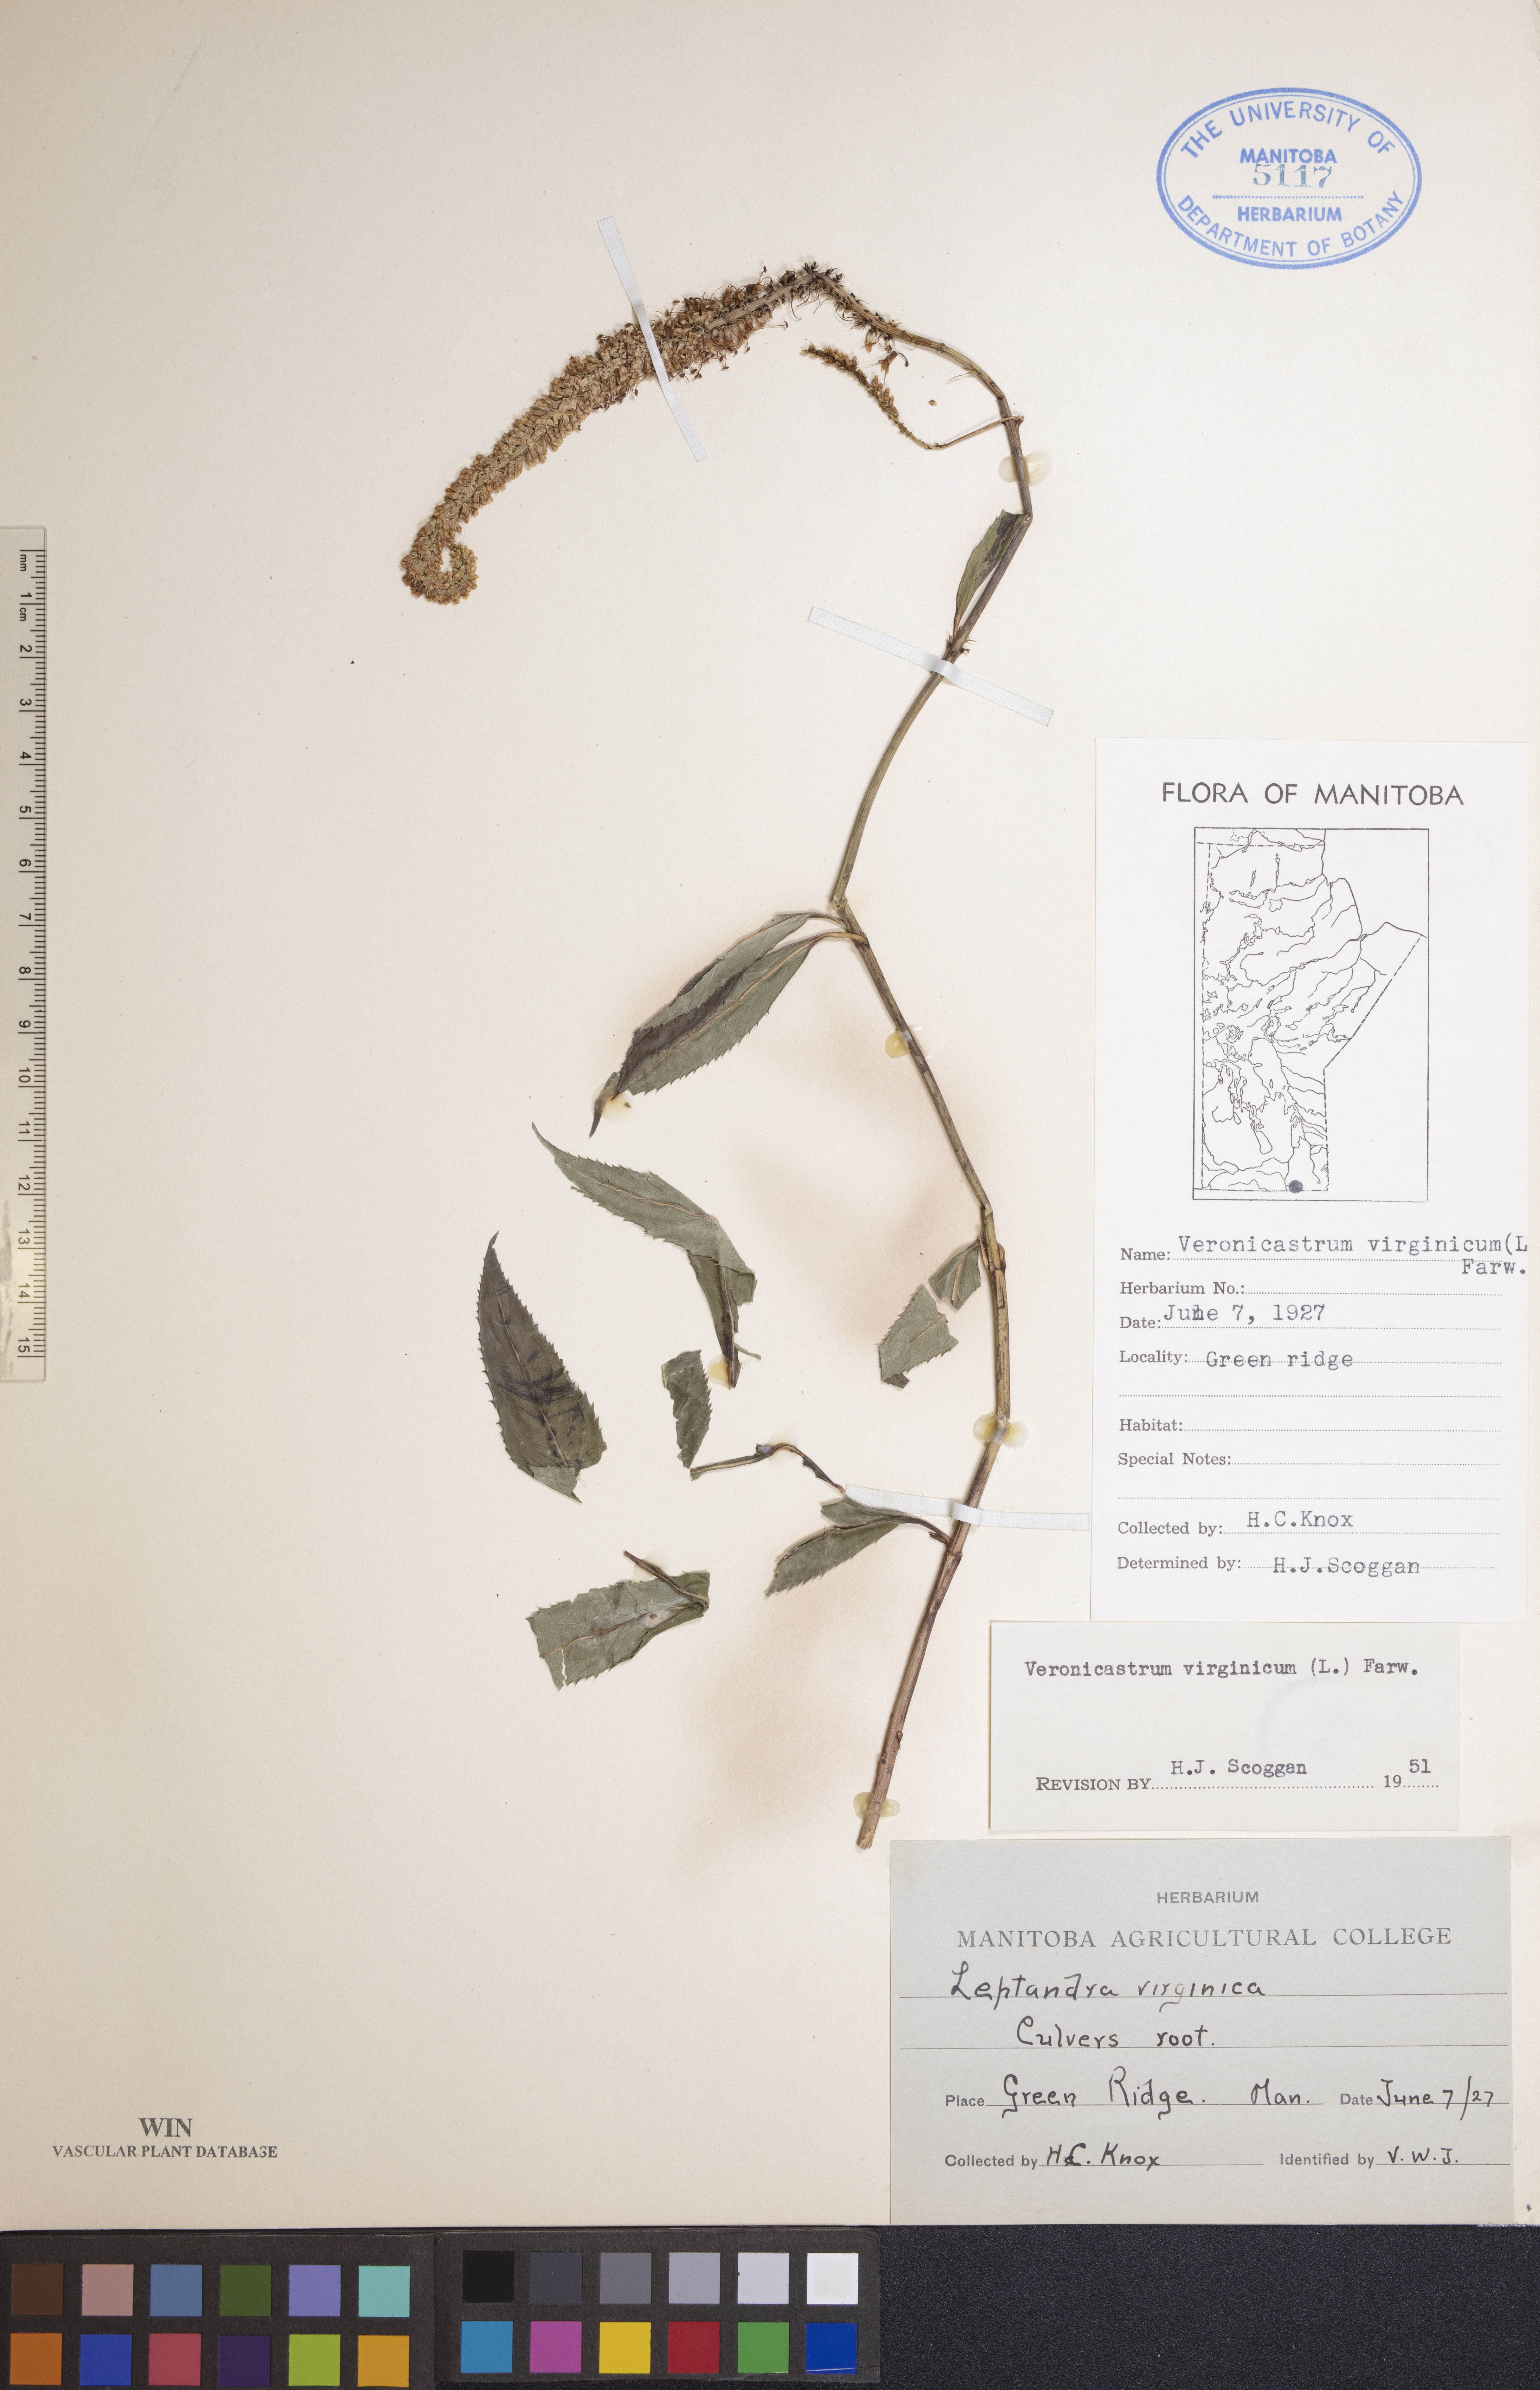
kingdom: Plantae
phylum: Tracheophyta
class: Magnoliopsida
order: Lamiales
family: Plantaginaceae
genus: Veronicastrum
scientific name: Veronicastrum virginicum
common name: Blackroot
